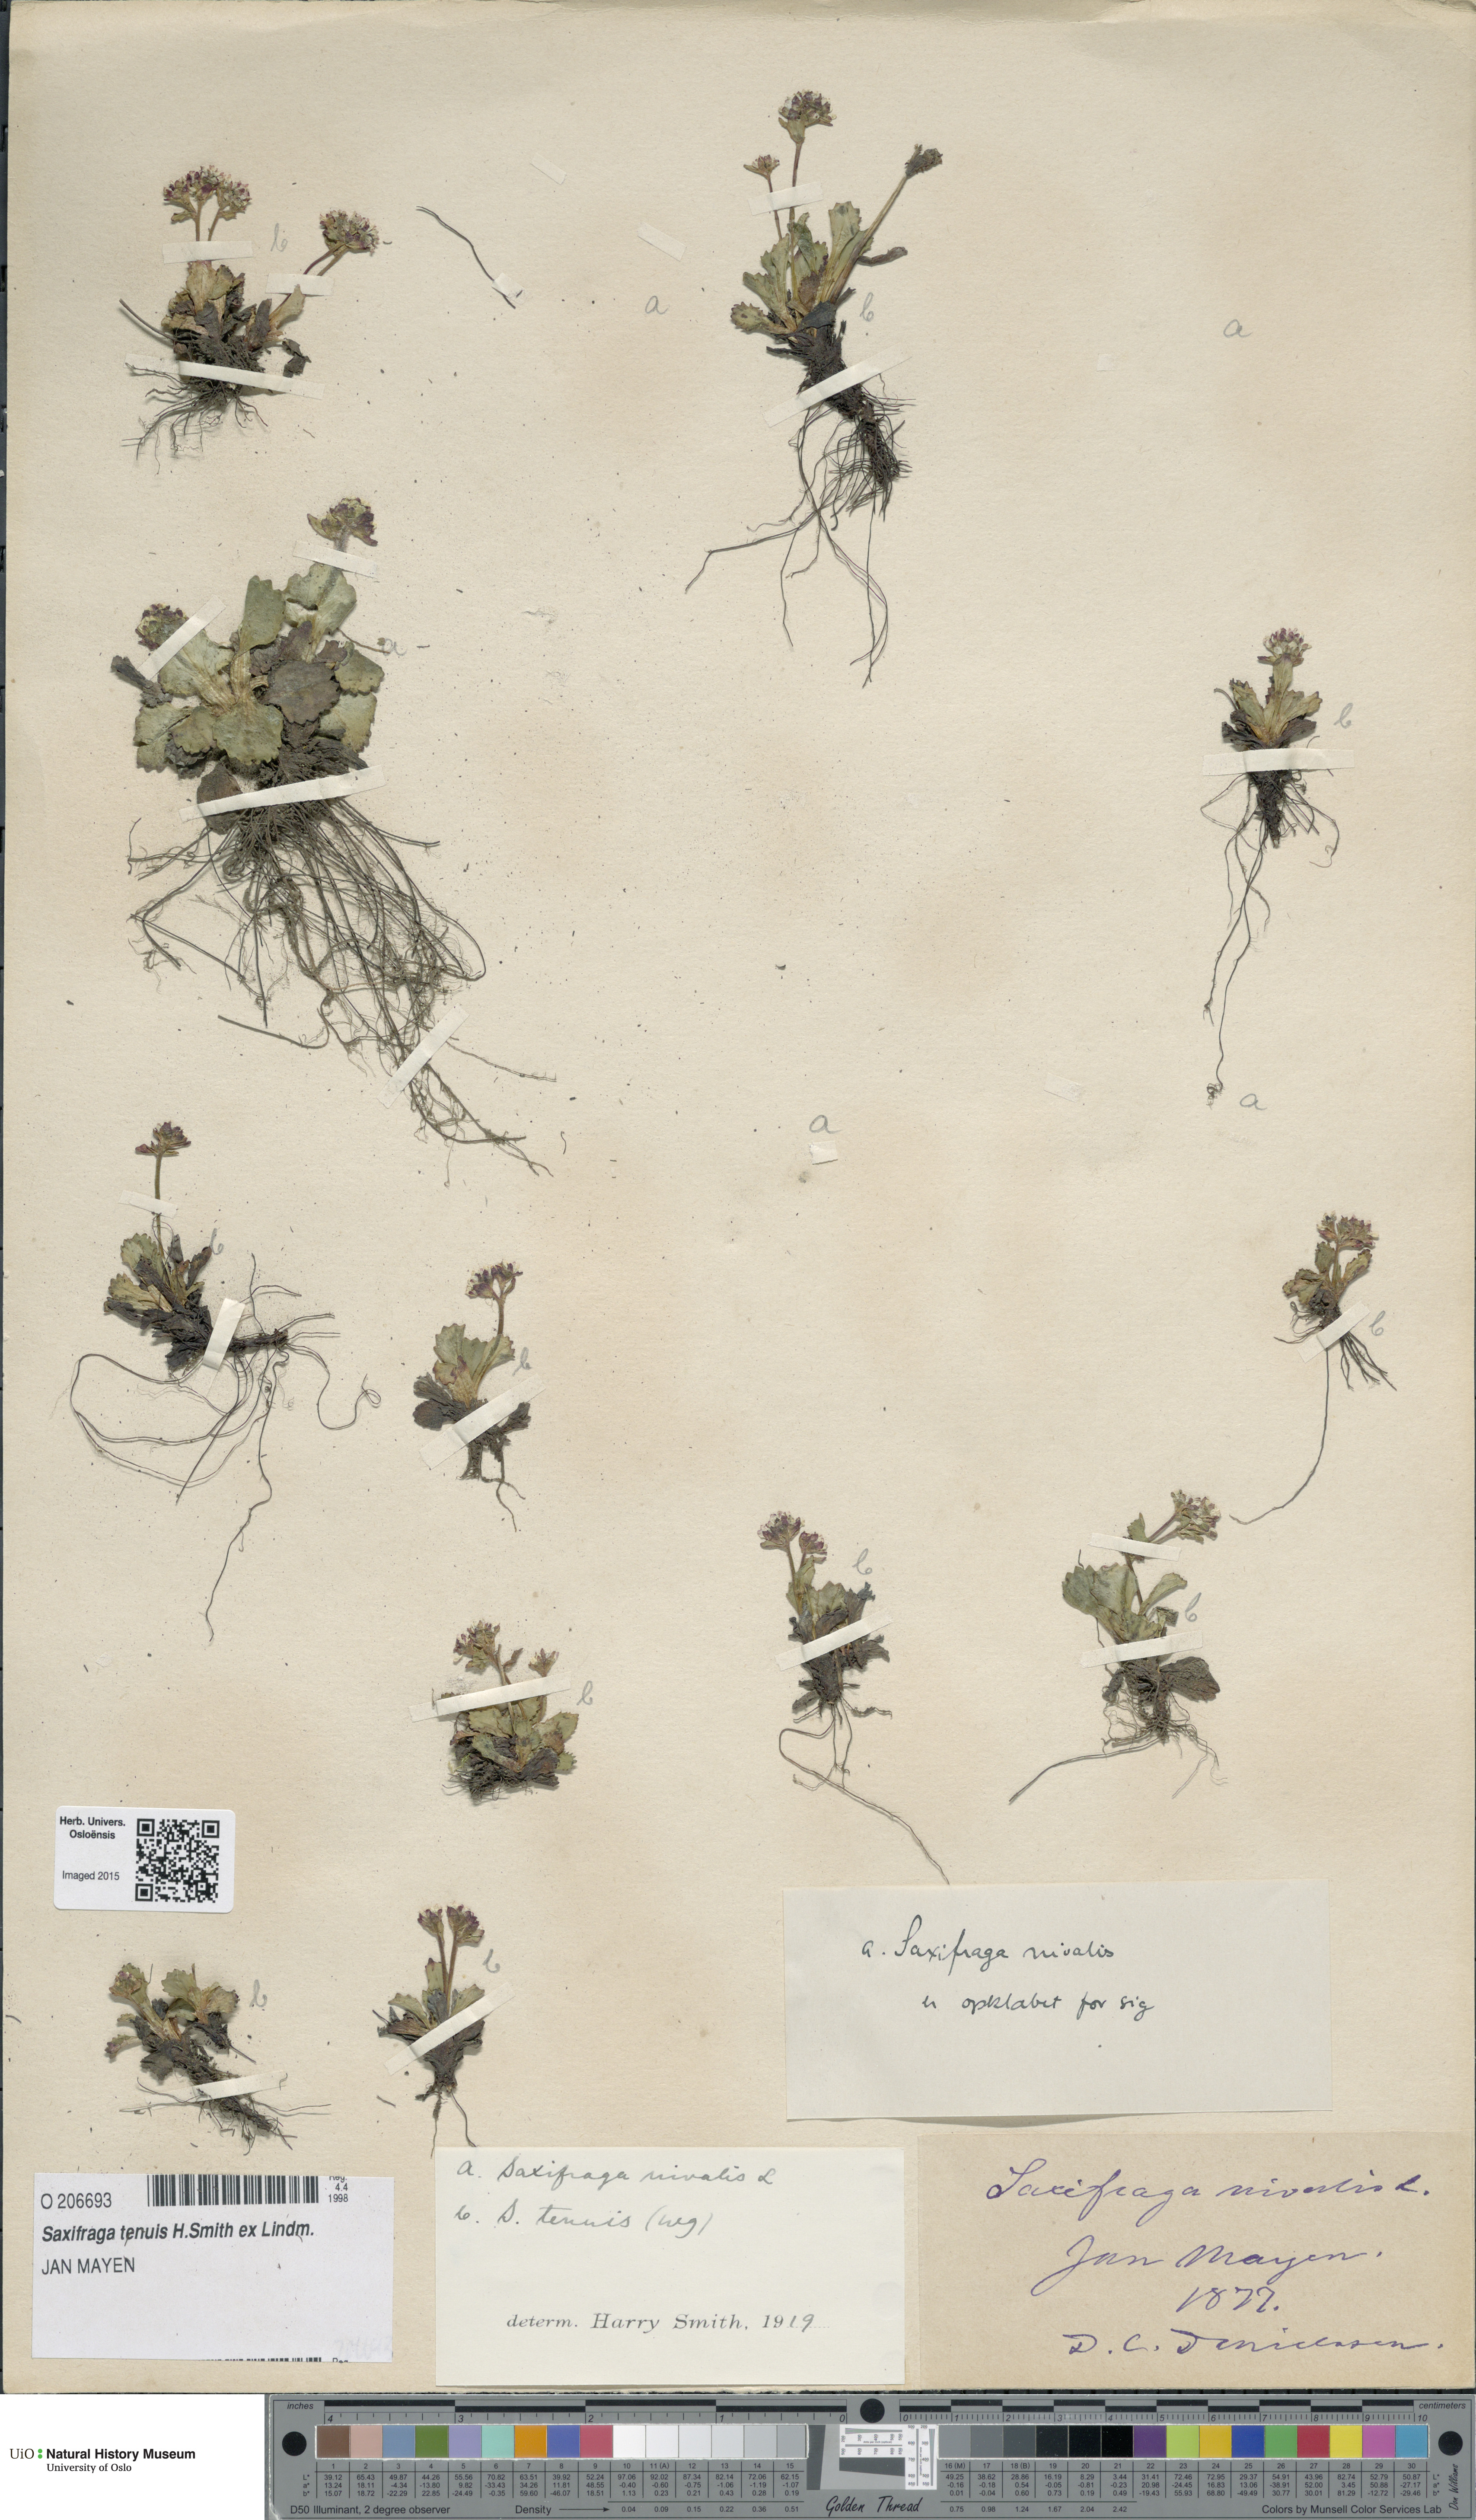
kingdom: Plantae
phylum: Tracheophyta
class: Magnoliopsida
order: Saxifragales
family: Saxifragaceae
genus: Micranthes
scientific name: Micranthes tenuis
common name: Ottertail pass saxifrage
